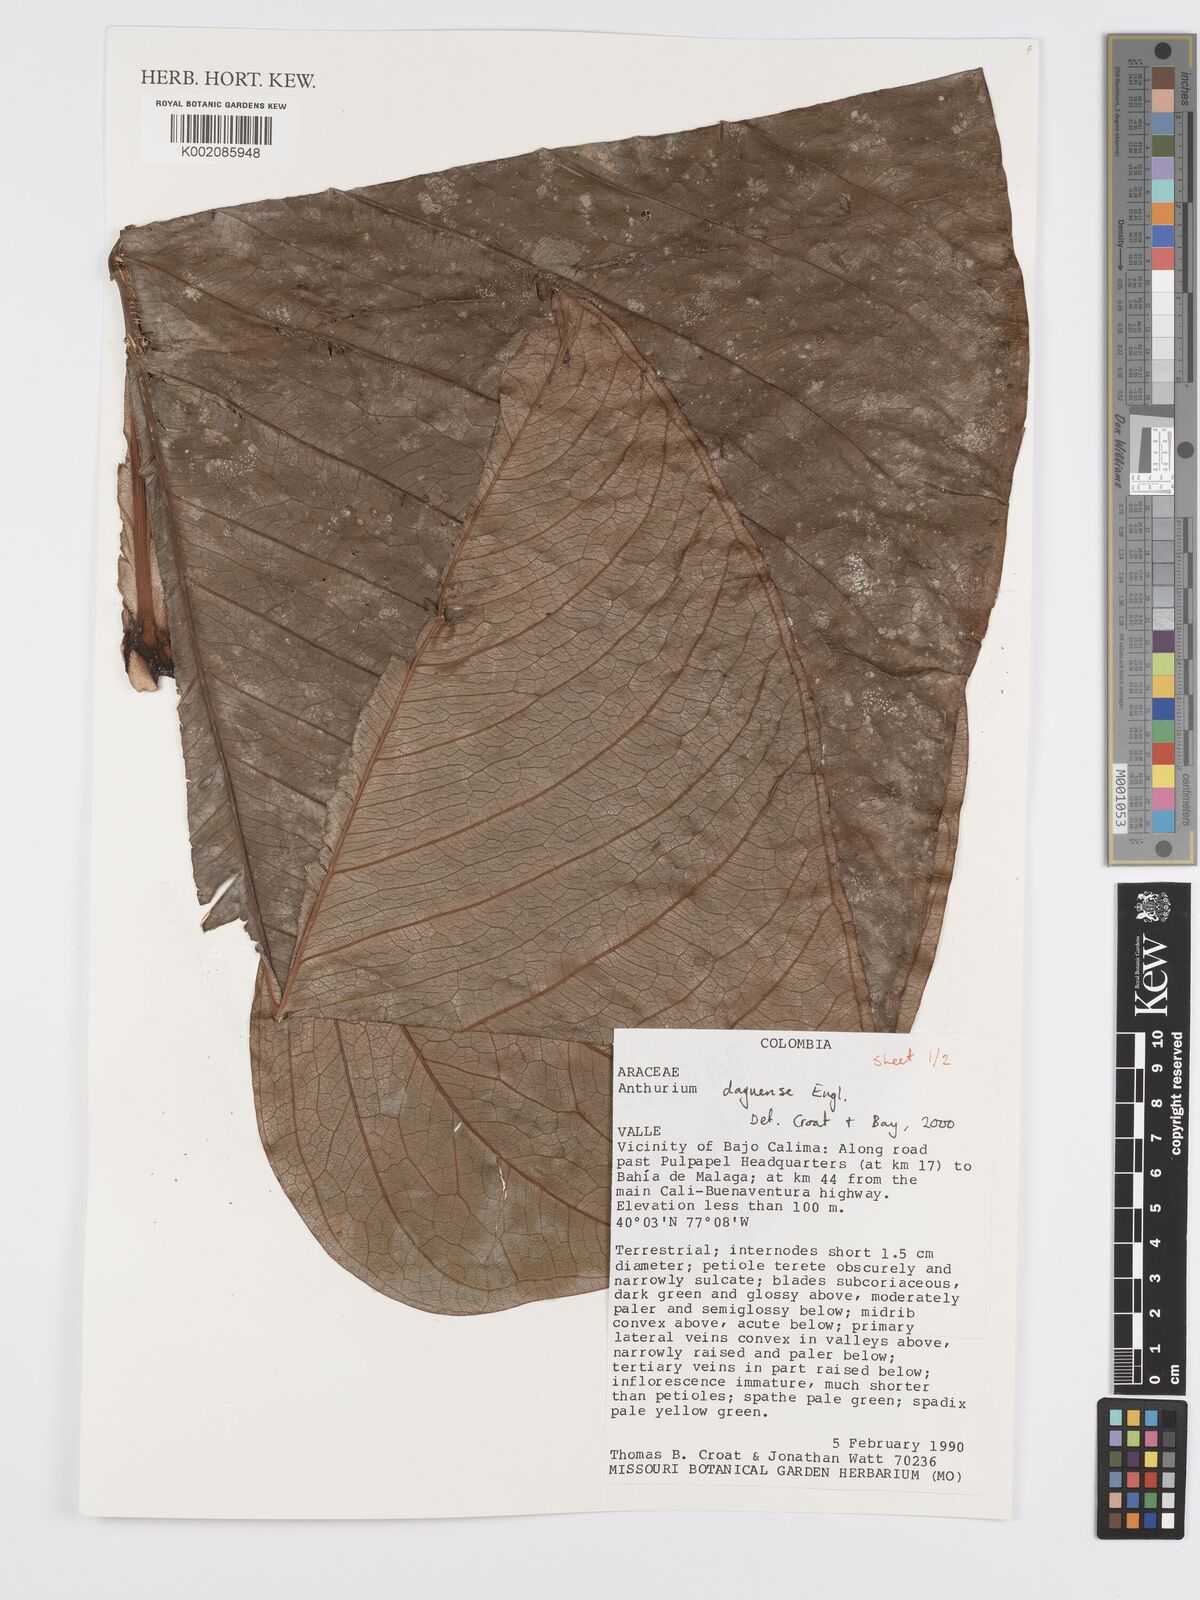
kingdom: Plantae
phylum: Tracheophyta
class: Liliopsida
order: Alismatales
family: Araceae
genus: Anthurium
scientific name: Anthurium daguense
